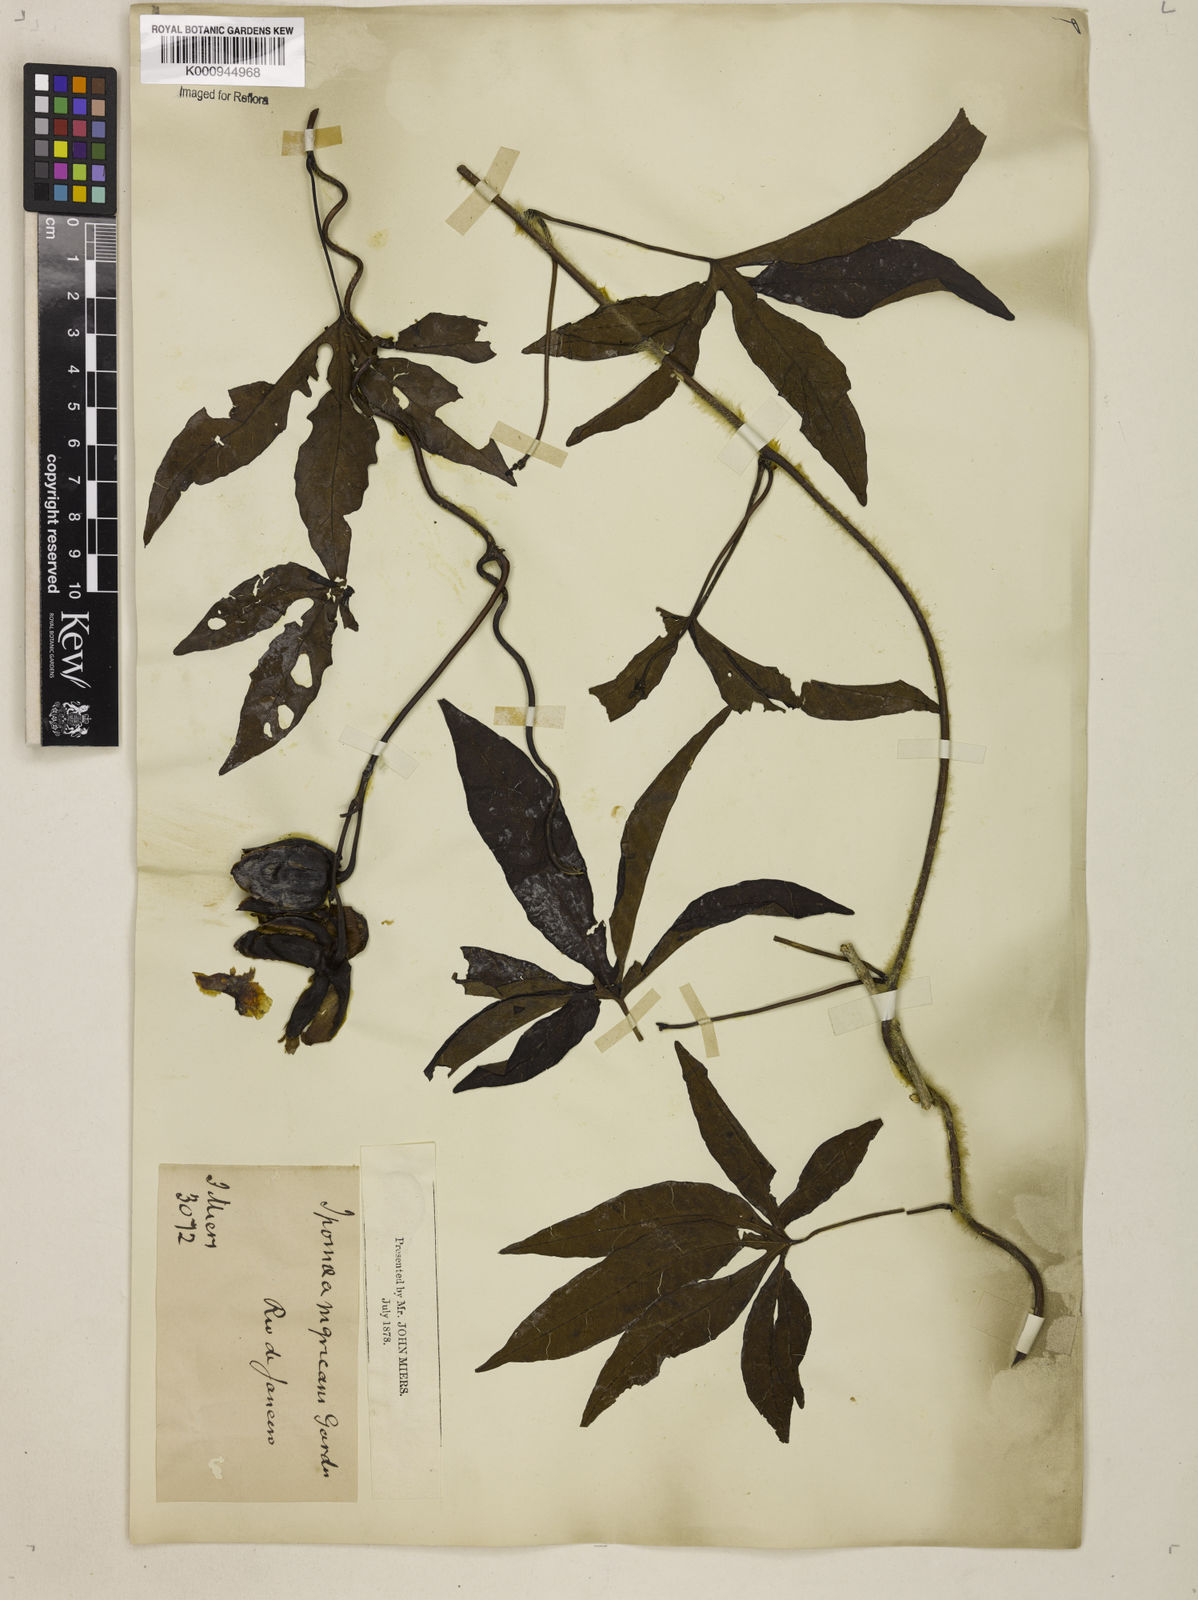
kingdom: Plantae
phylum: Tracheophyta
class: Magnoliopsida
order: Solanales
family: Convolvulaceae
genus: Distimake
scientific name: Distimake dissectus
